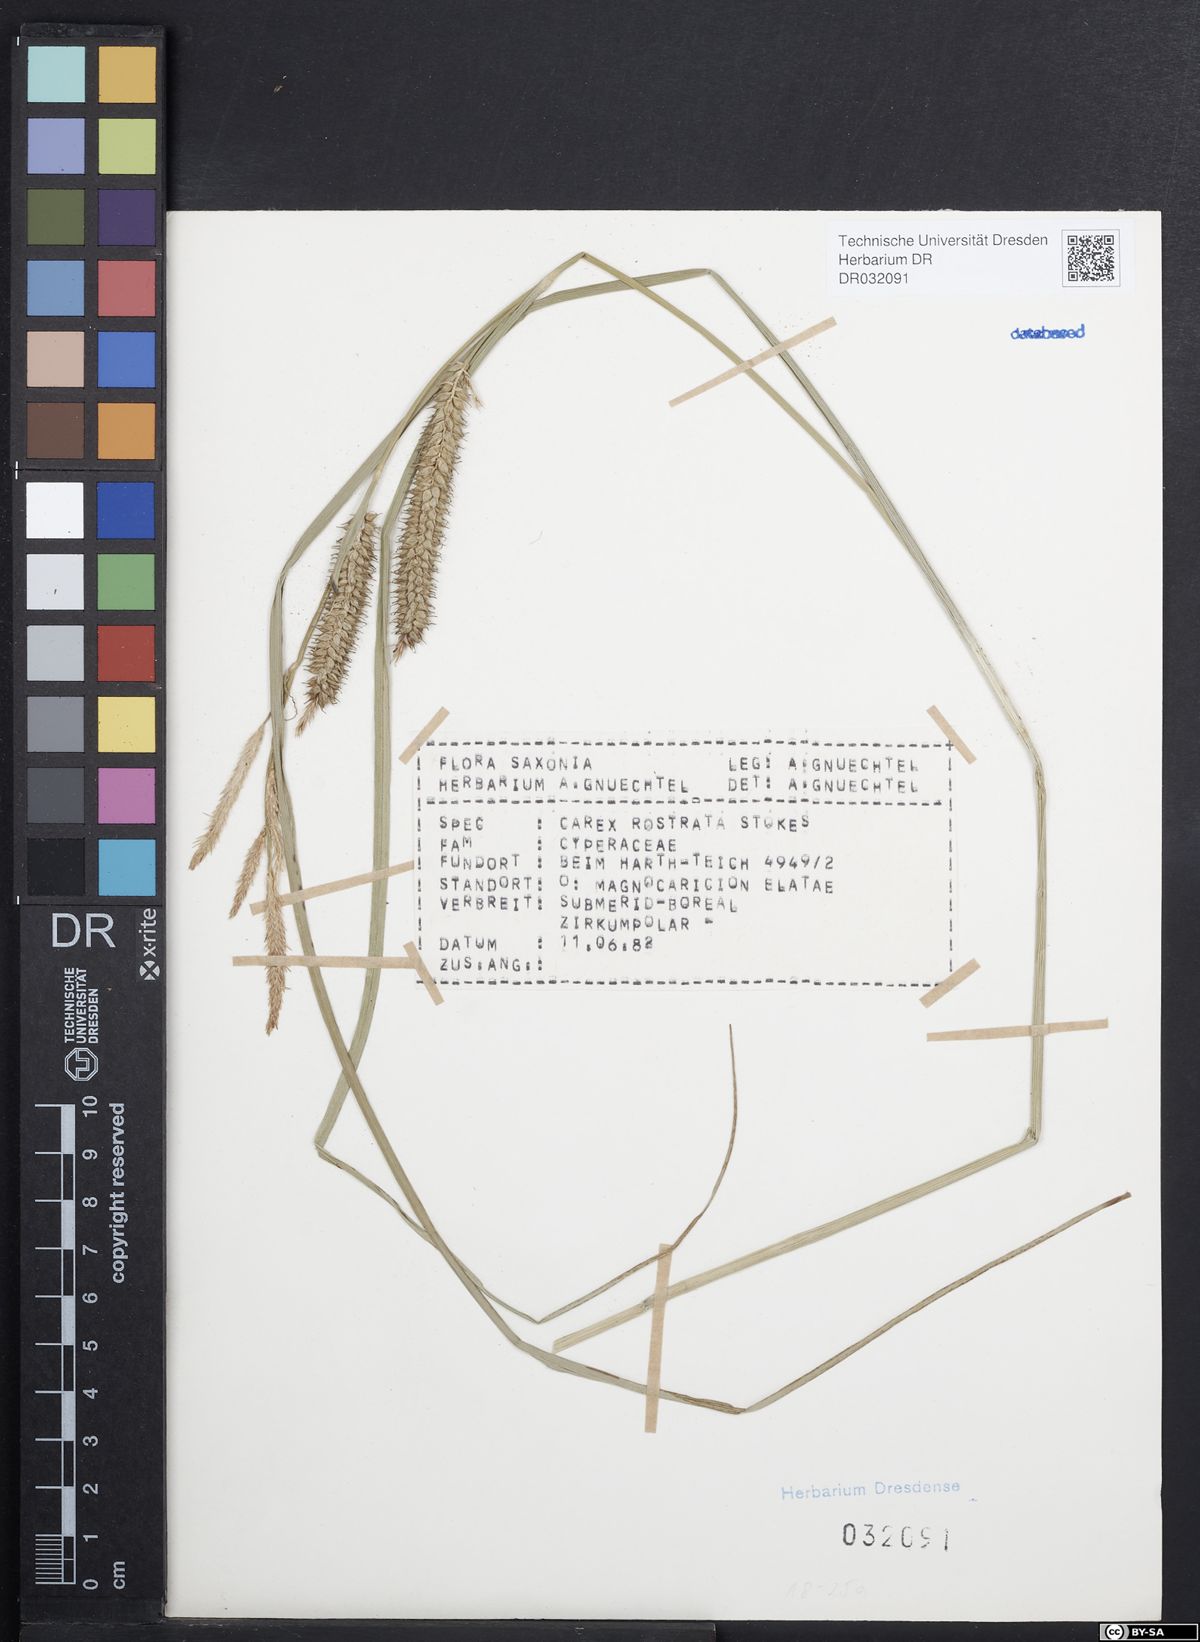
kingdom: Plantae
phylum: Tracheophyta
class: Liliopsida
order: Poales
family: Cyperaceae
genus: Carex
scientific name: Carex rostrata
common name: Bottle sedge
